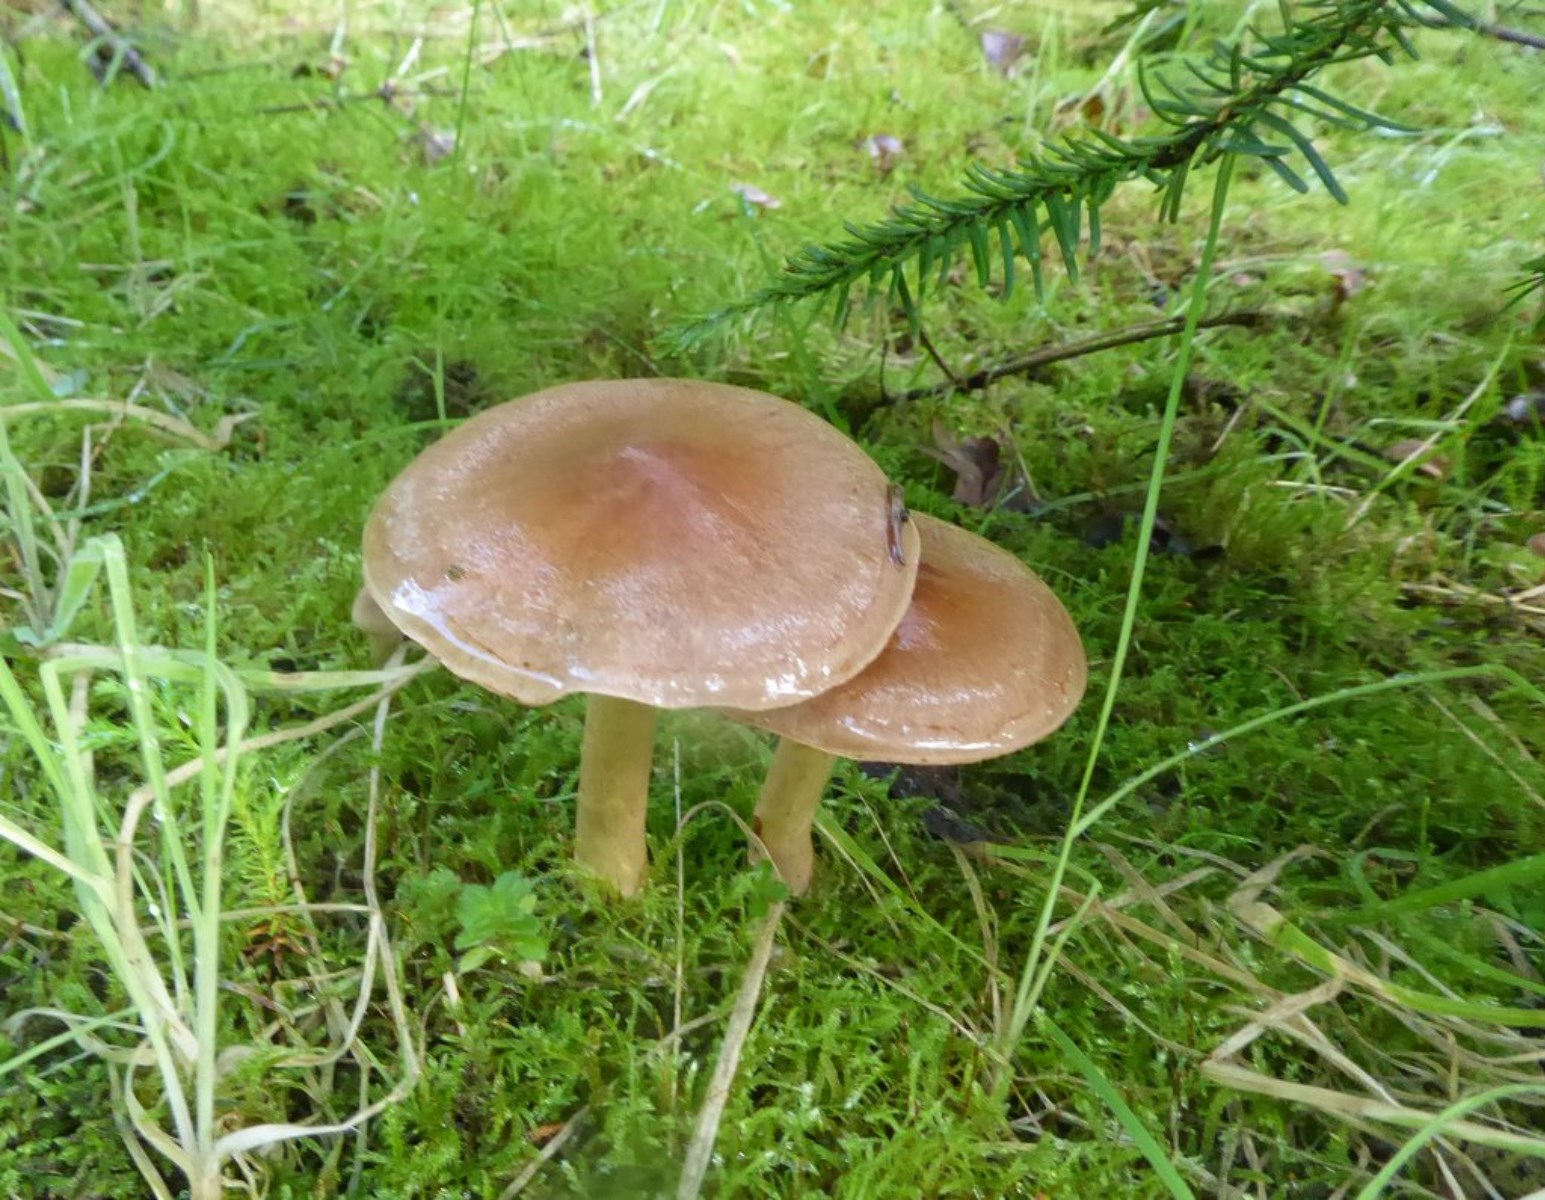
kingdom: Fungi
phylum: Basidiomycota
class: Agaricomycetes
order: Agaricales
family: Cortinariaceae
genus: Cortinarius
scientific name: Cortinarius
